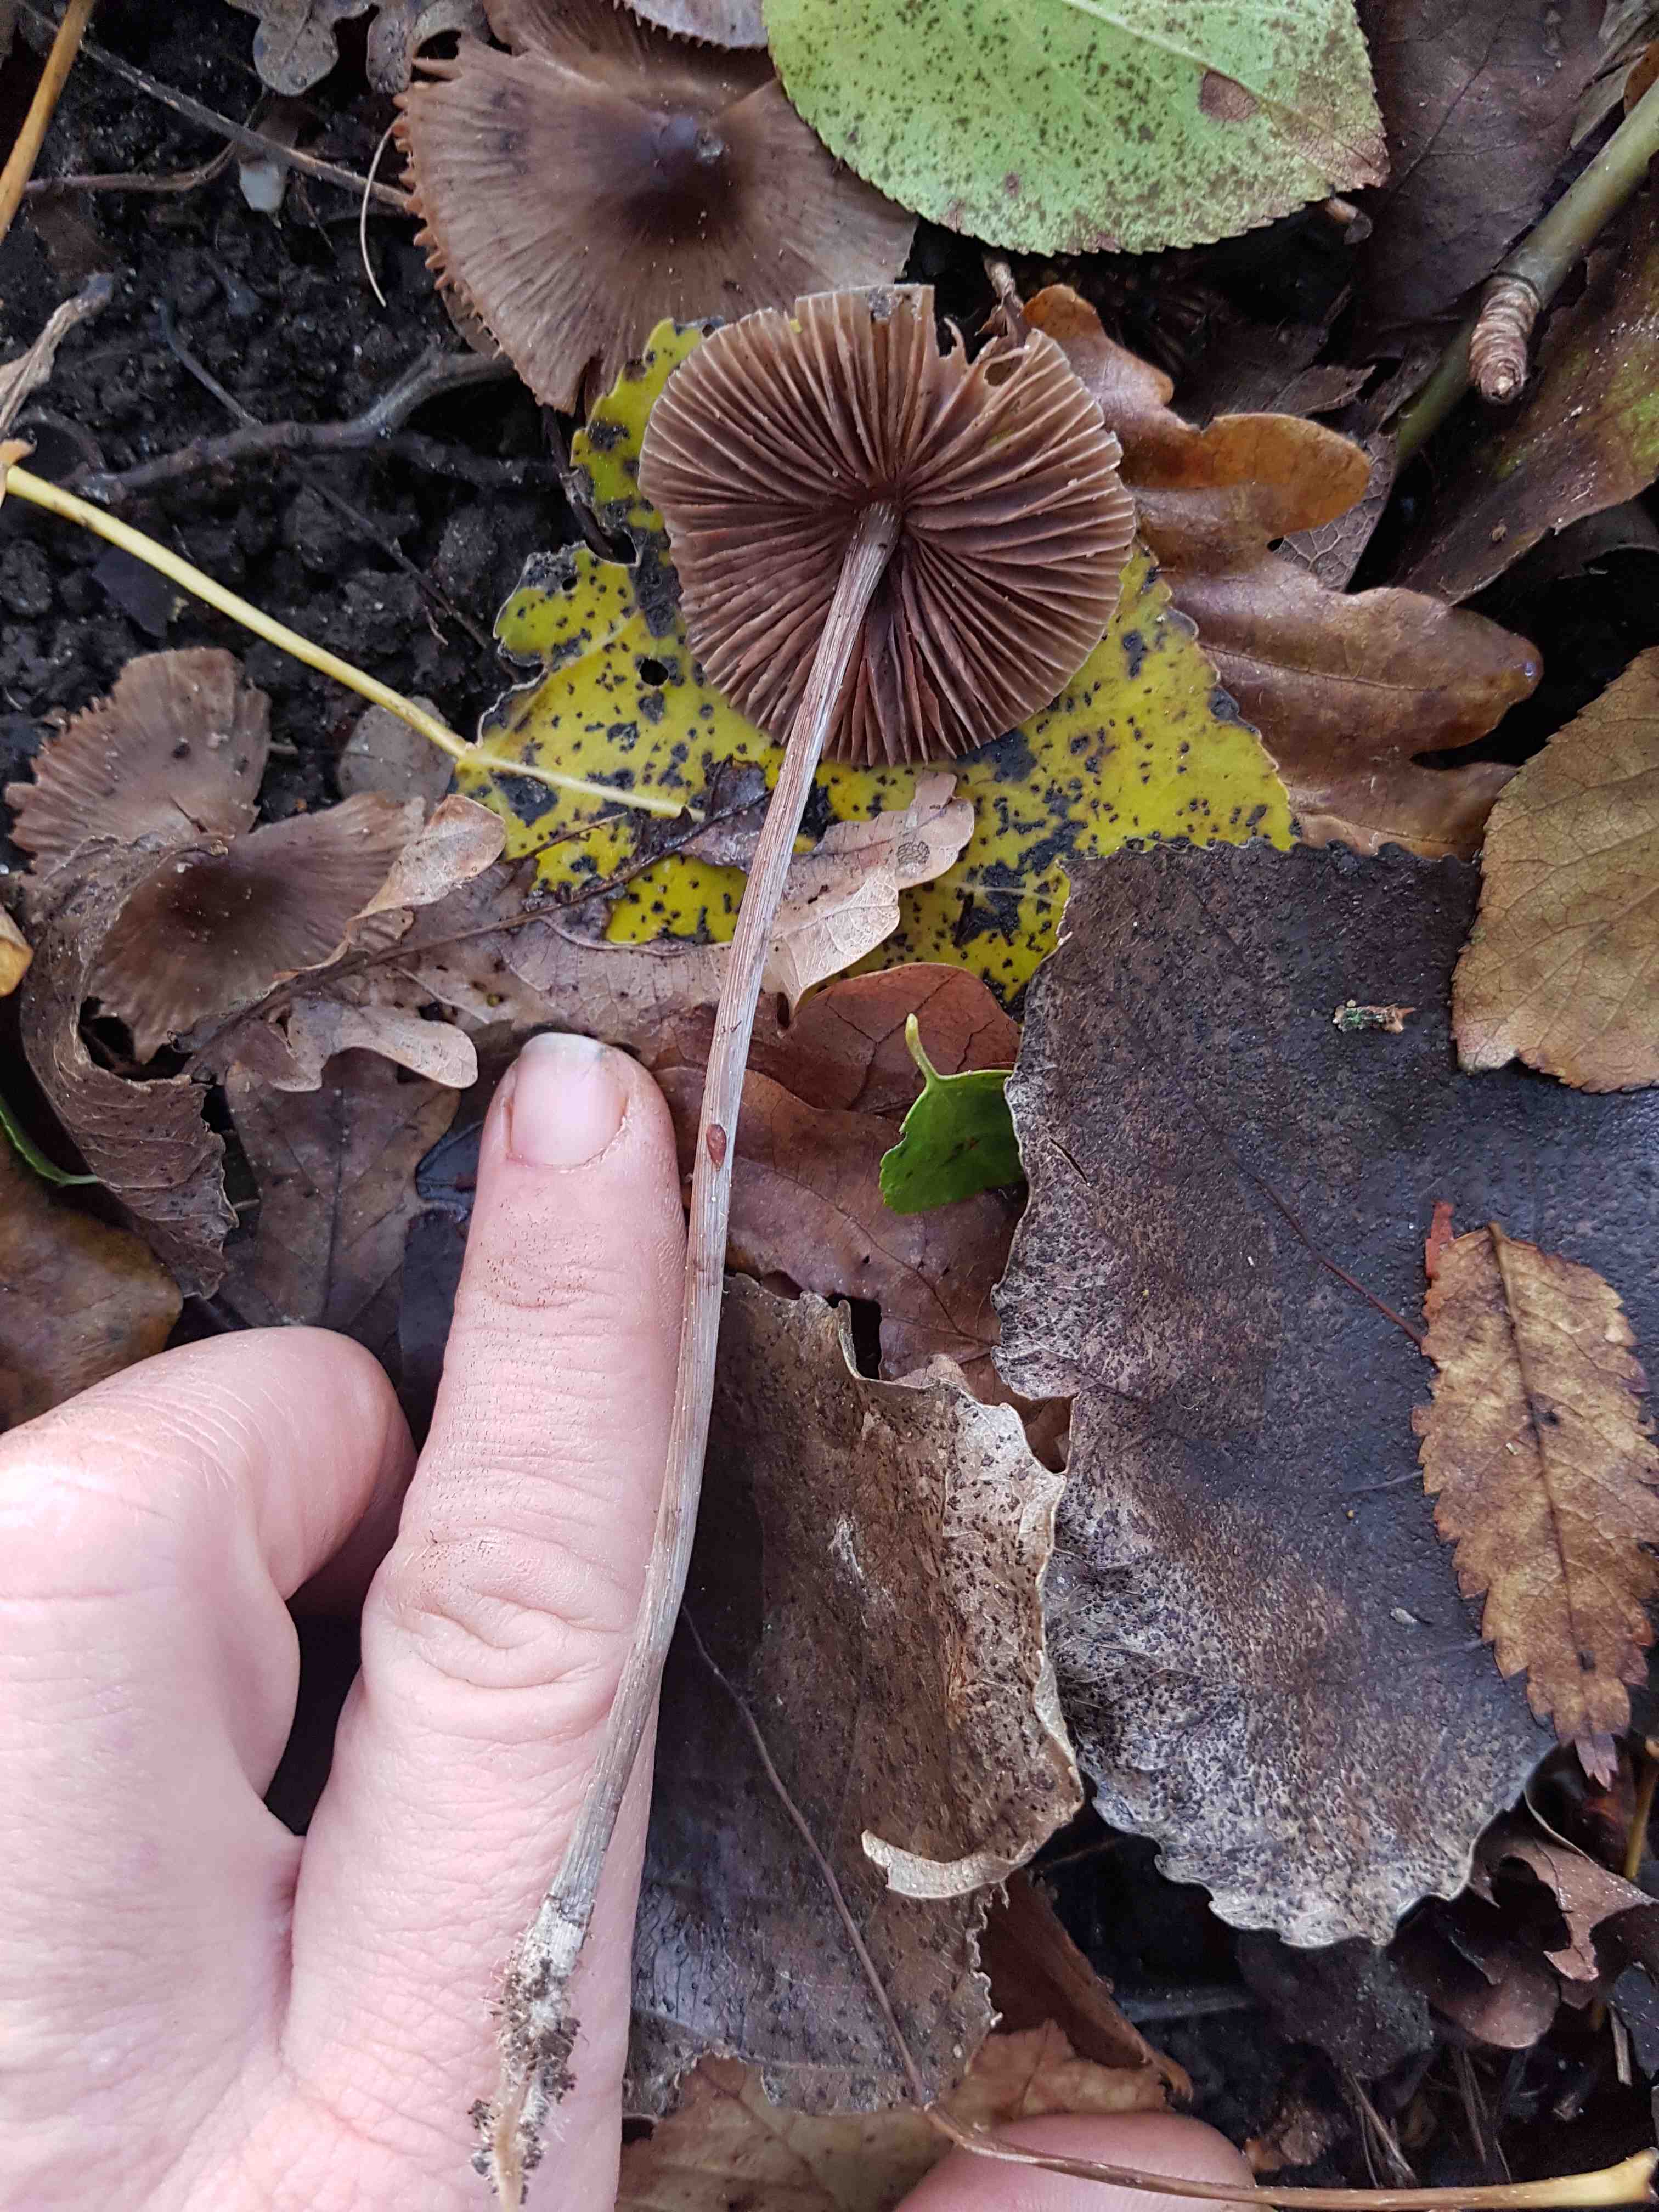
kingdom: Fungi
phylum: Basidiomycota
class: Agaricomycetes
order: Agaricales
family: Mycenaceae
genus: Mycena
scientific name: Mycena polygramma
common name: mangestribet huesvamp
